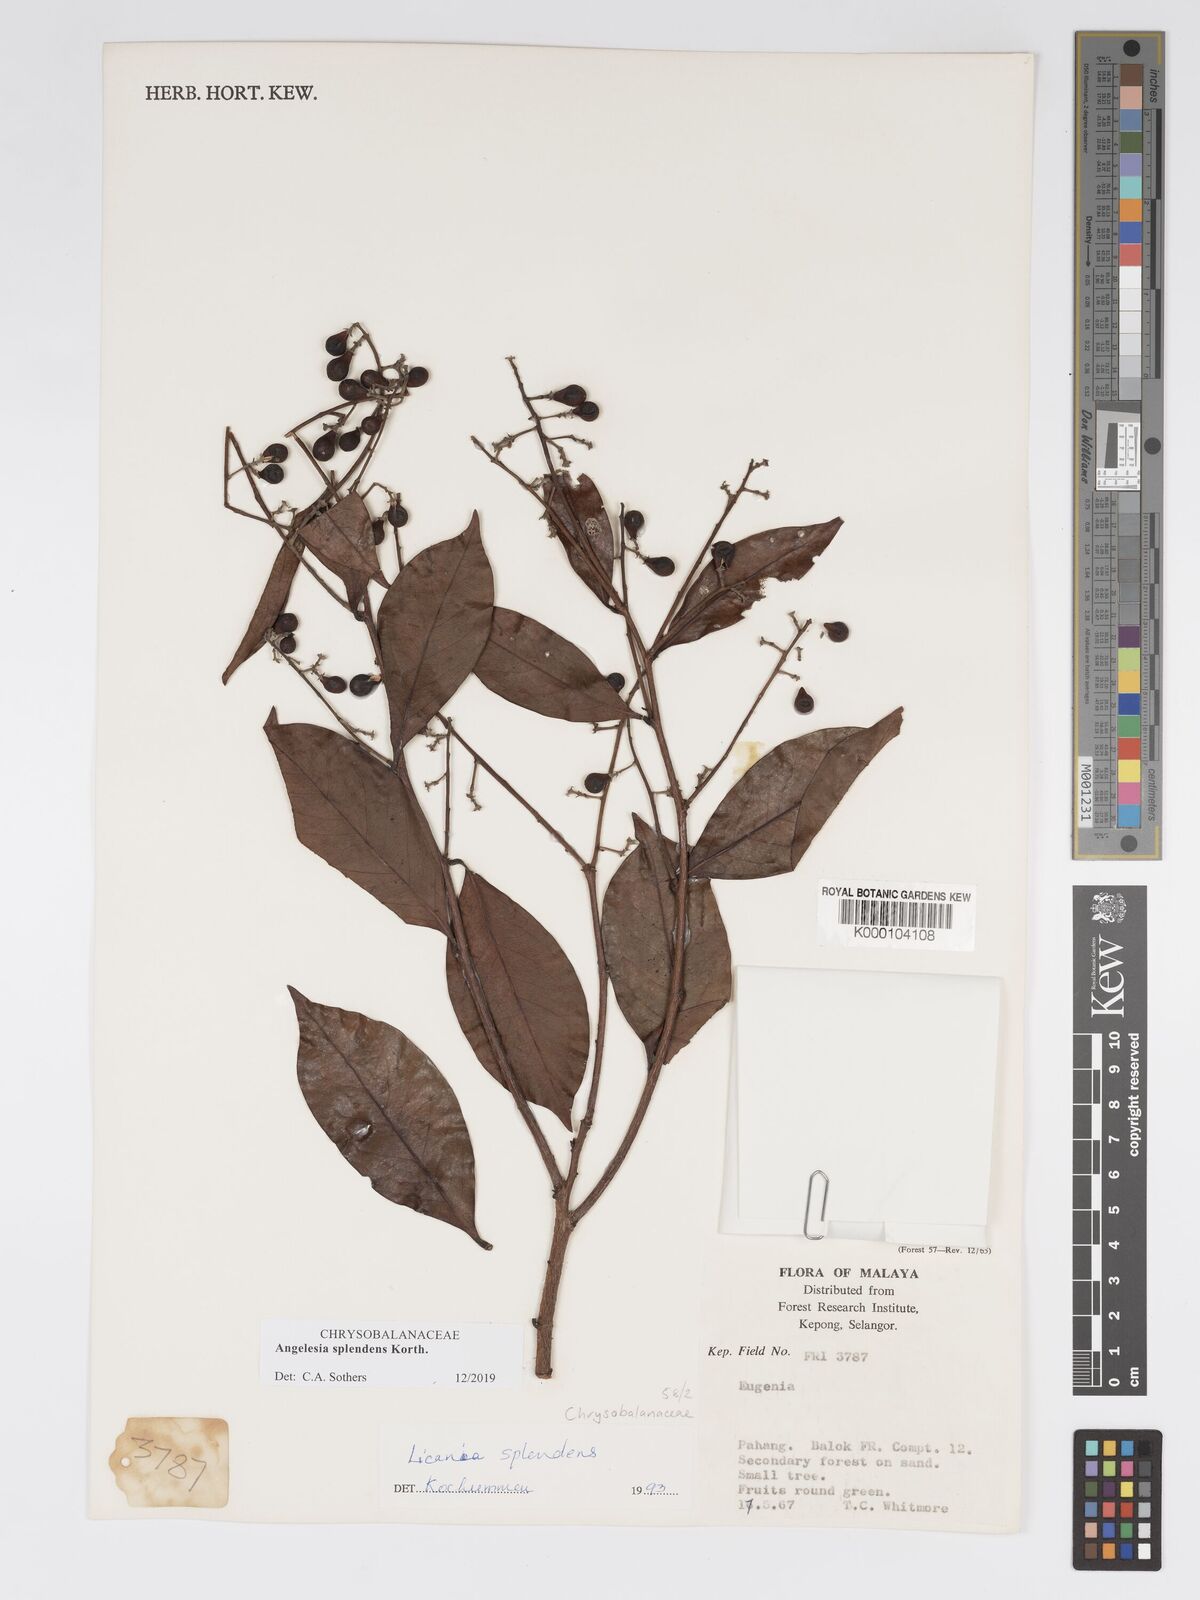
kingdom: Plantae
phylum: Tracheophyta
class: Magnoliopsida
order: Malpighiales
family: Chrysobalanaceae
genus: Angelesia
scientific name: Angelesia splendens
